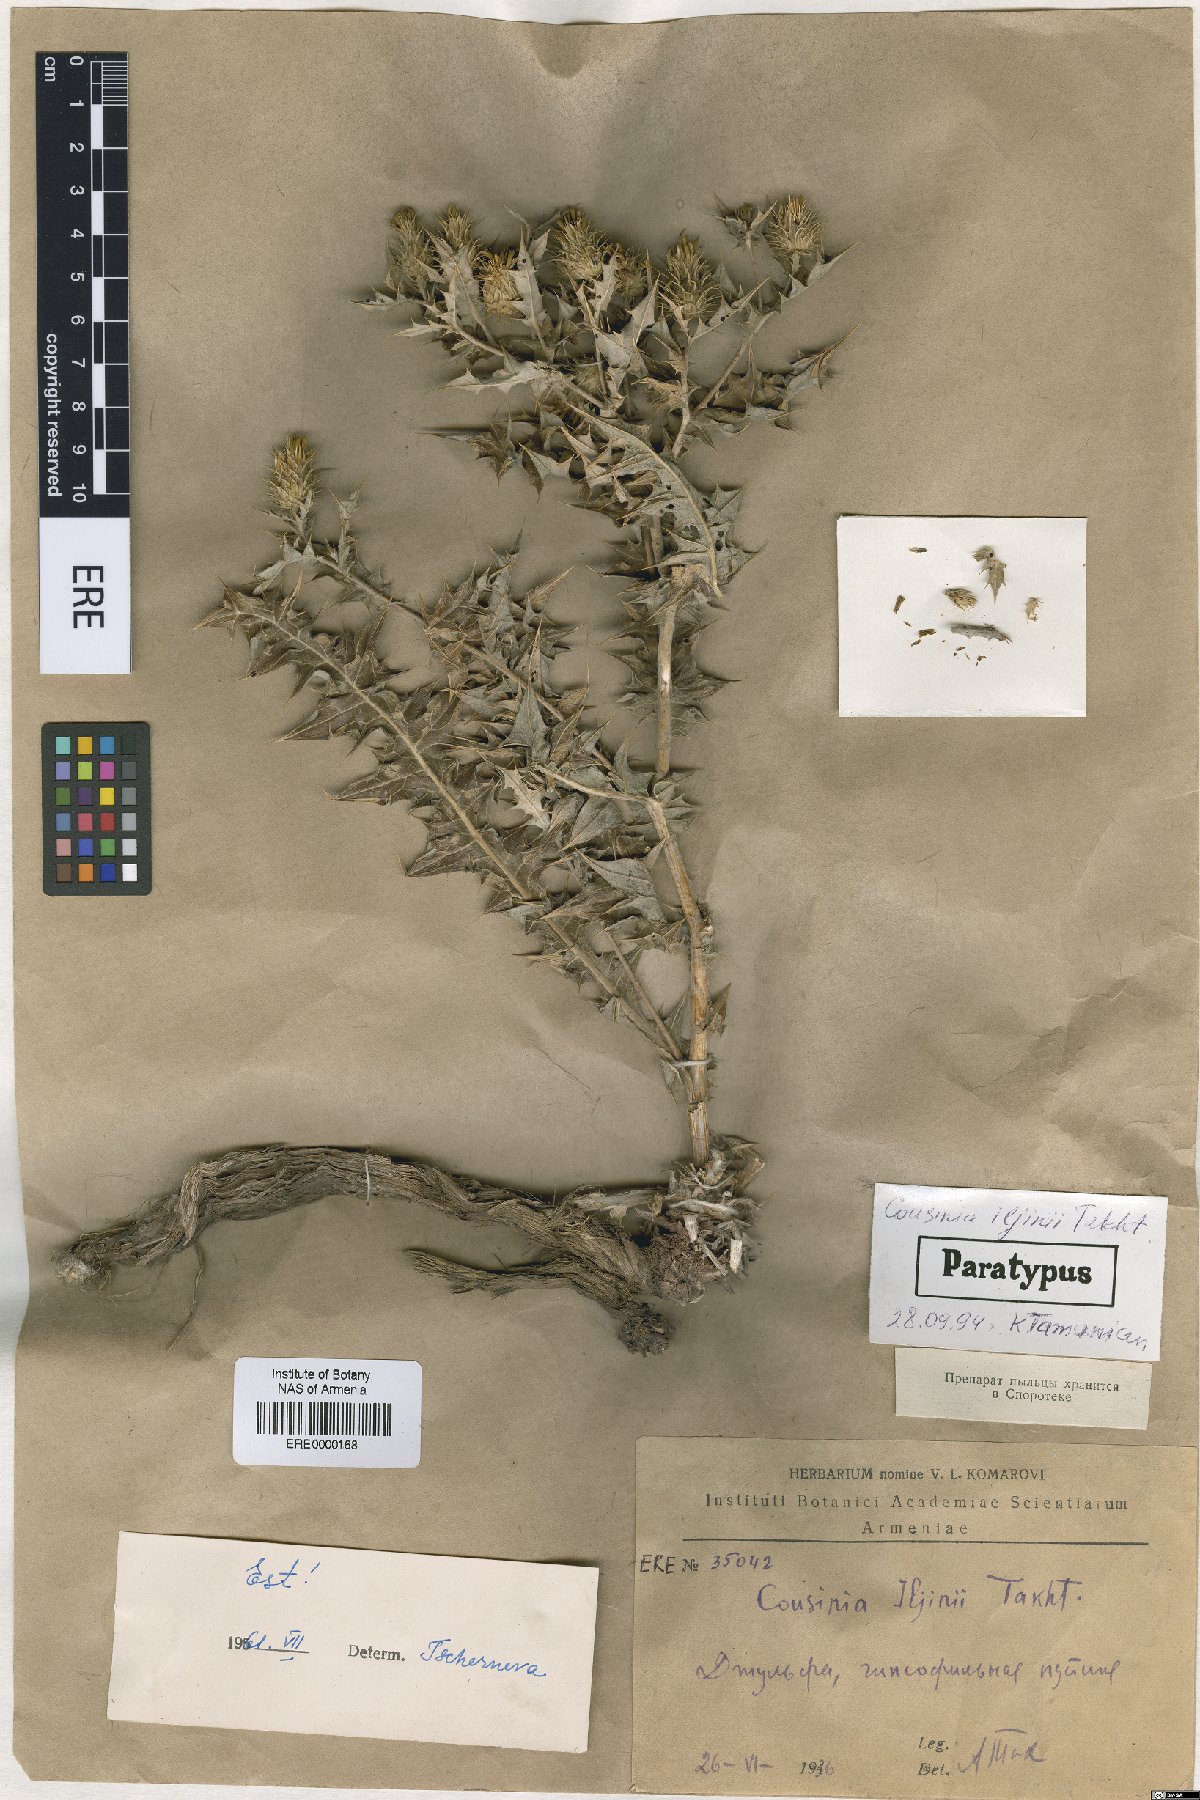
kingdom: Plantae
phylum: Tracheophyta
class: Magnoliopsida
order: Asterales
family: Asteraceae
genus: Cousinia
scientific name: Cousinia iljinii
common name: Ilyin's cousinia
